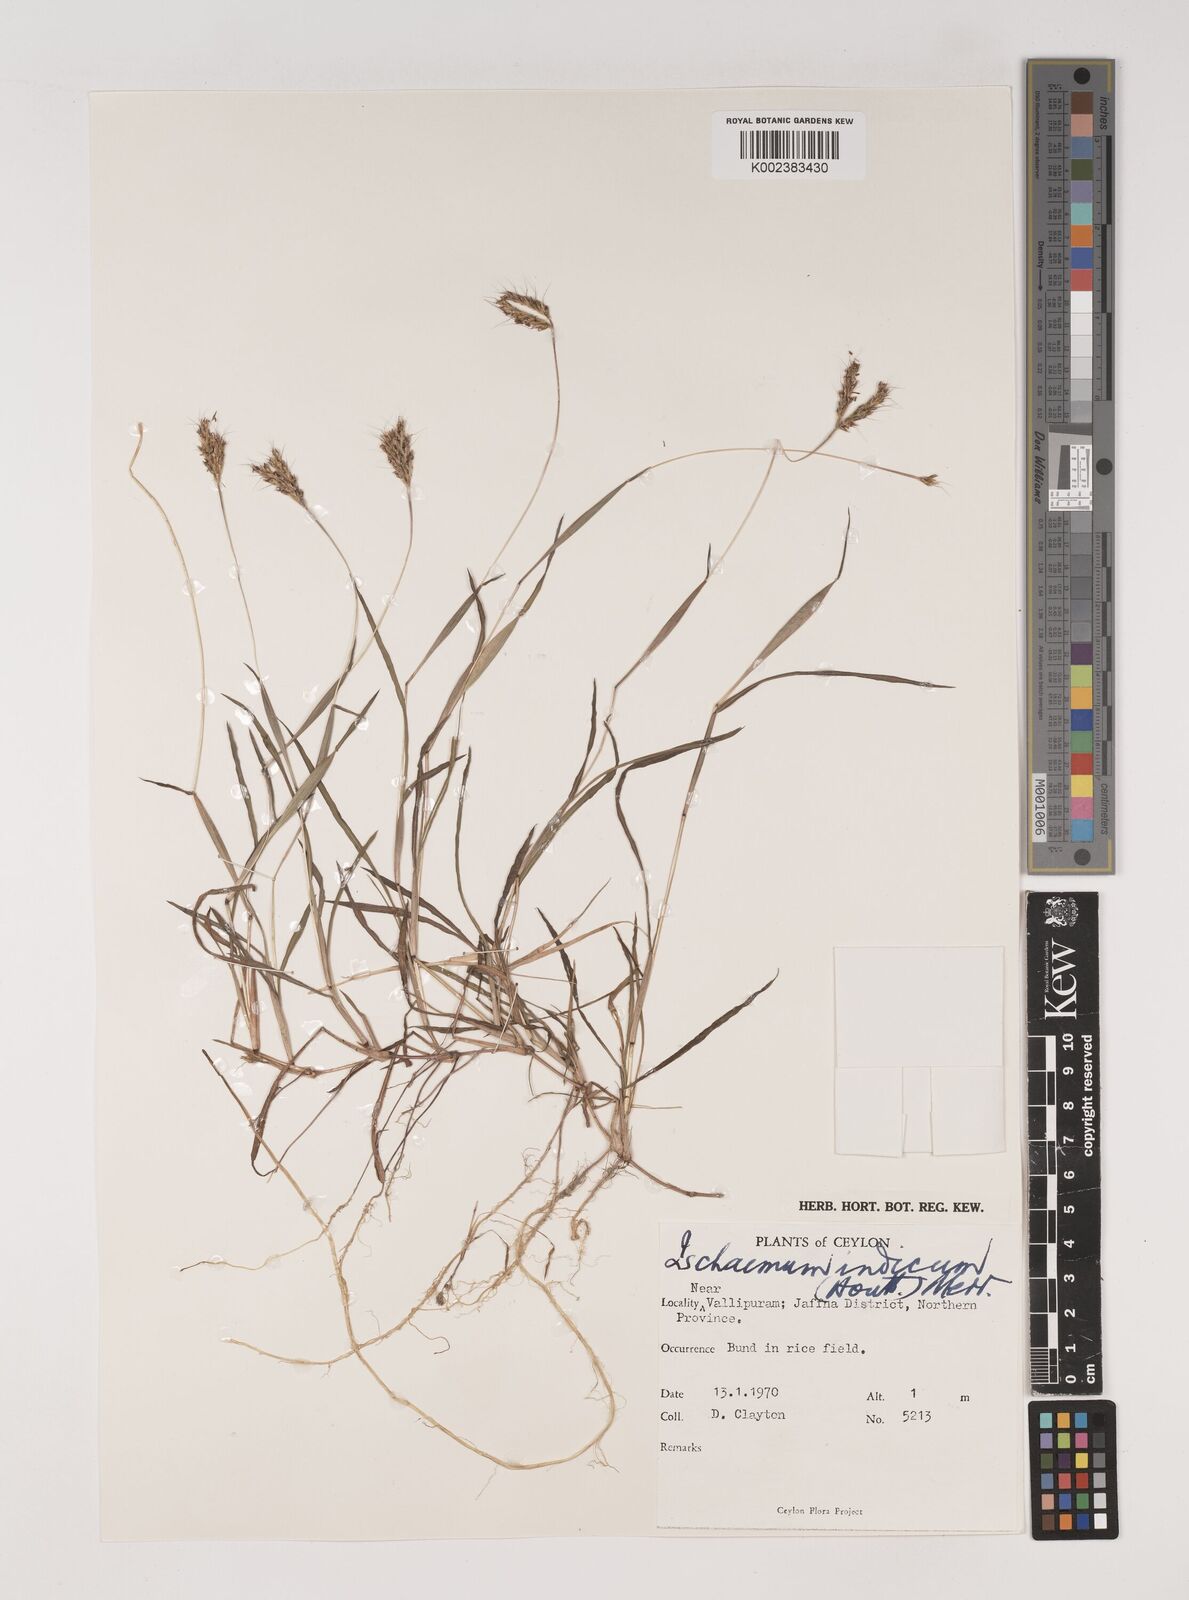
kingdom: Plantae
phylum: Tracheophyta
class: Liliopsida
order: Poales
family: Poaceae
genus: Polytrias
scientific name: Polytrias indica
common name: Indian murainagrass
